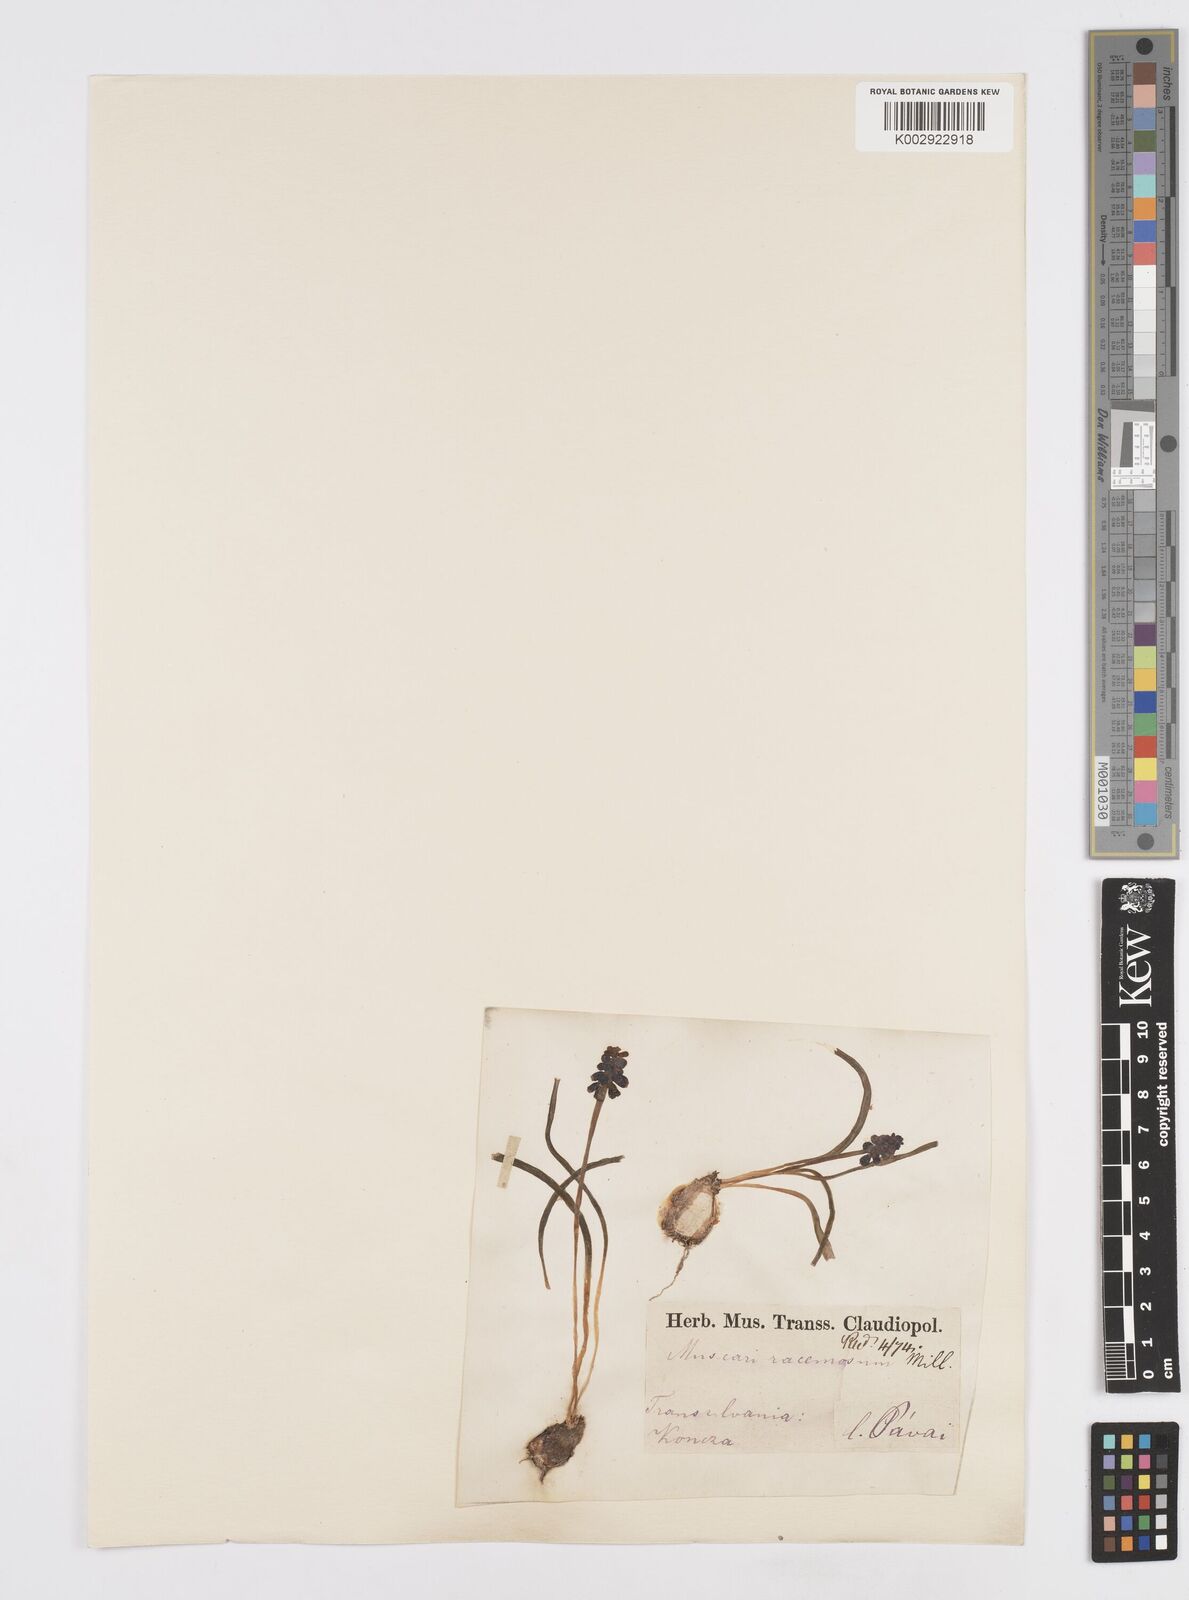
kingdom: Plantae
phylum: Tracheophyta
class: Liliopsida
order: Asparagales
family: Asparagaceae
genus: Muscarimia
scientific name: Muscarimia muscari
